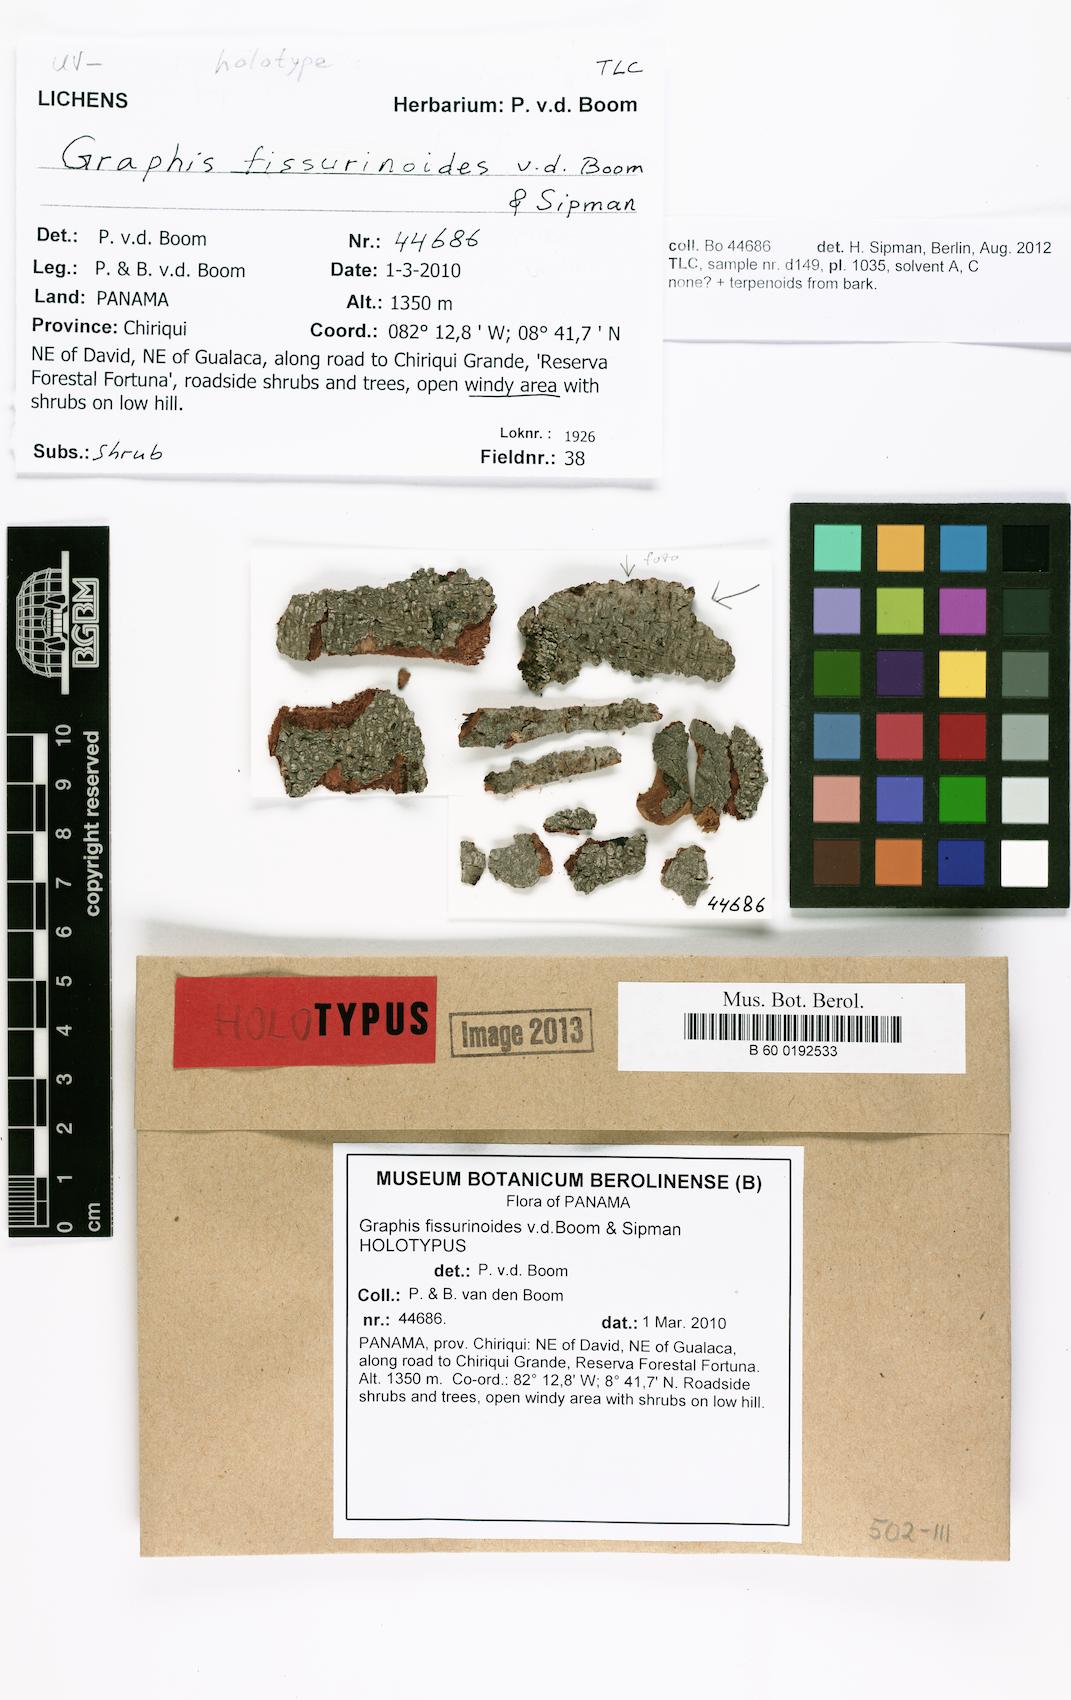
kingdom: Fungi
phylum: Ascomycota
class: Lecanoromycetes
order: Ostropales
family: Graphidaceae
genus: Graphis
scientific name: Graphis fissurinoides
